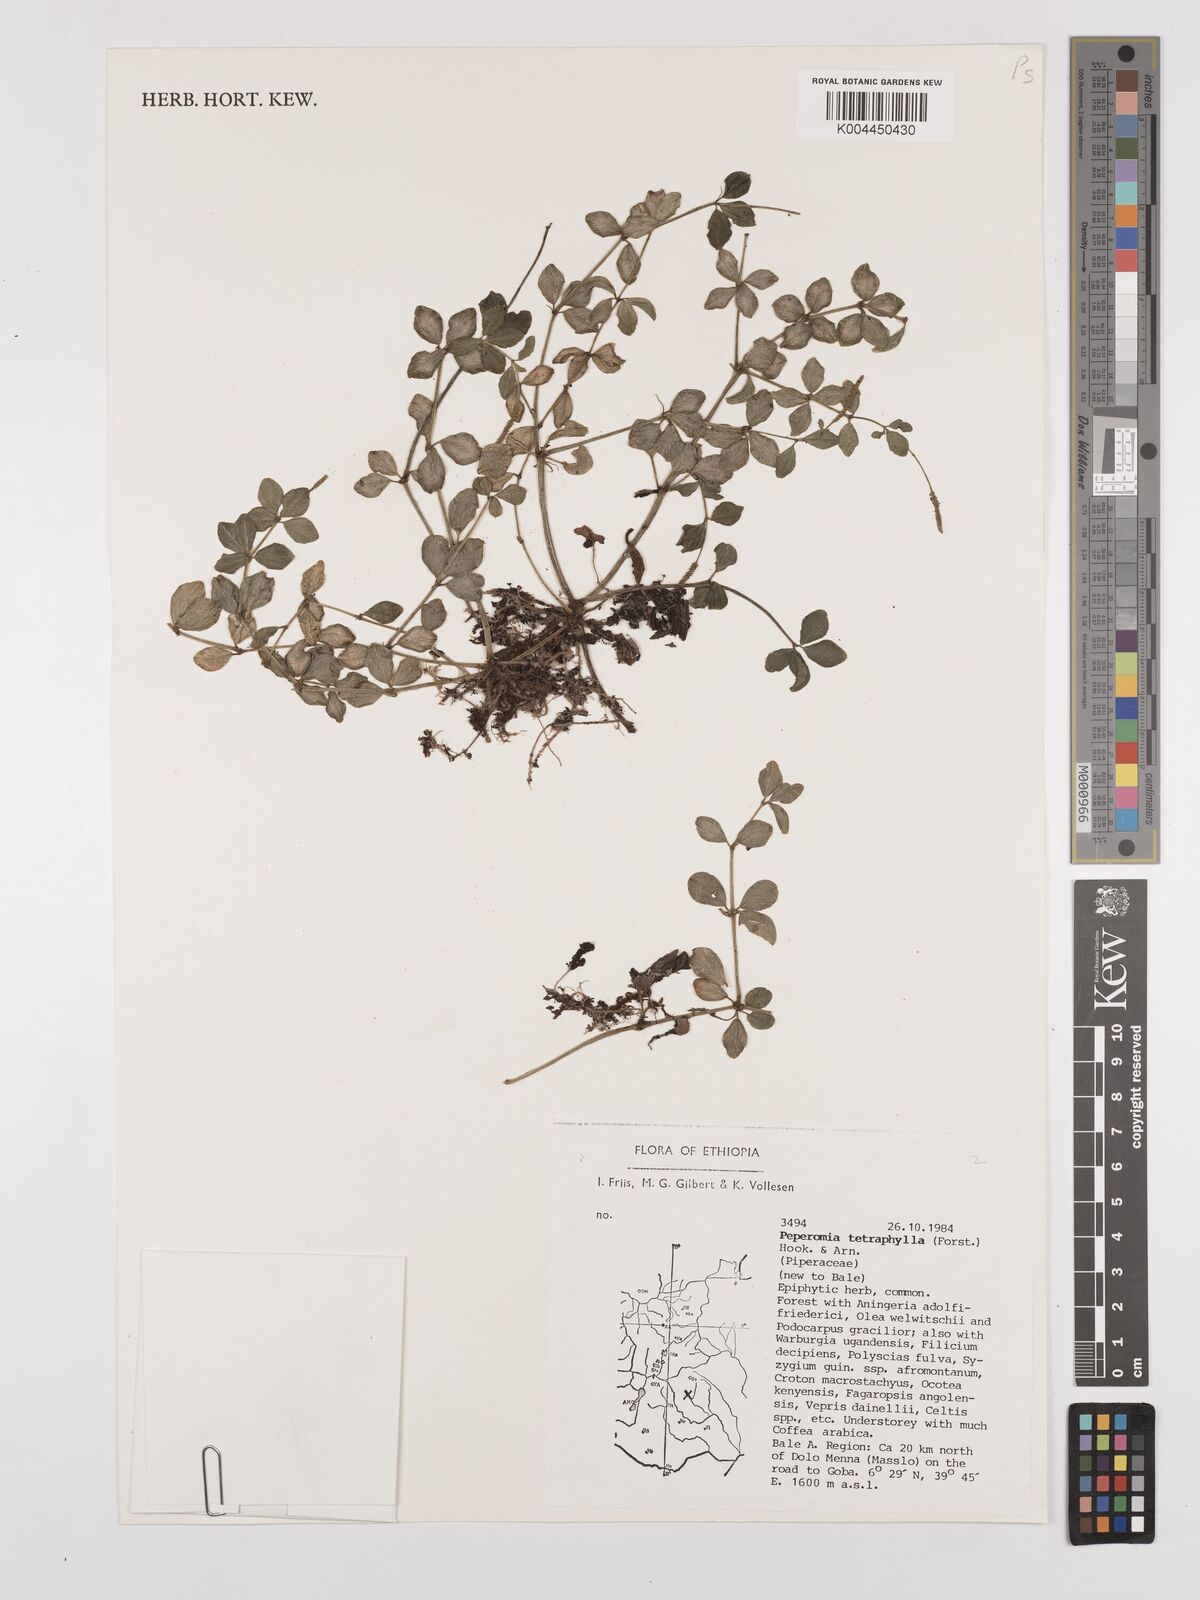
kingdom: Plantae
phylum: Tracheophyta
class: Magnoliopsida
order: Piperales
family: Piperaceae
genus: Peperomia
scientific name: Peperomia tetraphylla
